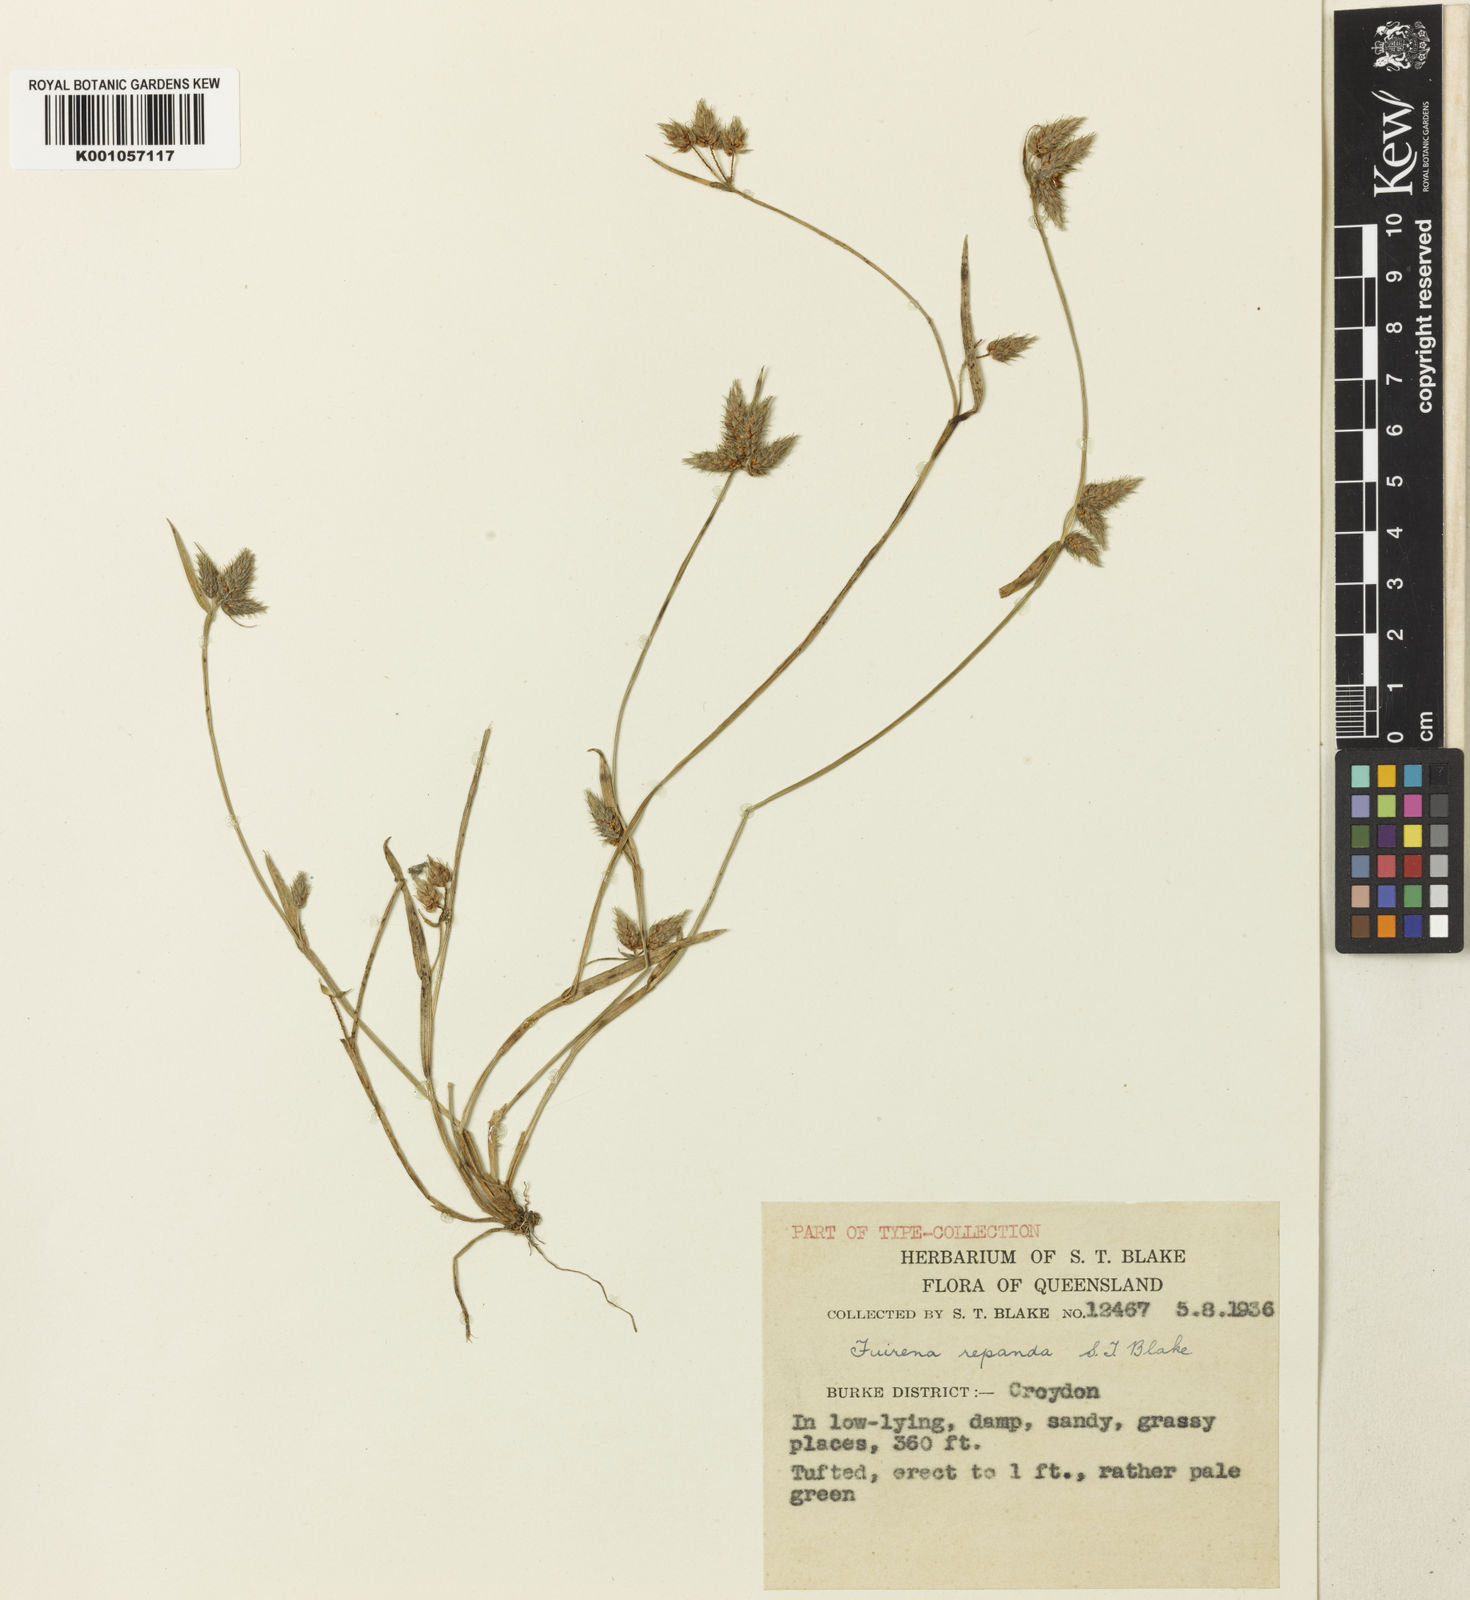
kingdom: Plantae
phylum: Tracheophyta
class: Liliopsida
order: Poales
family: Cyperaceae
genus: Fuirena
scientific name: Fuirena arenosa
